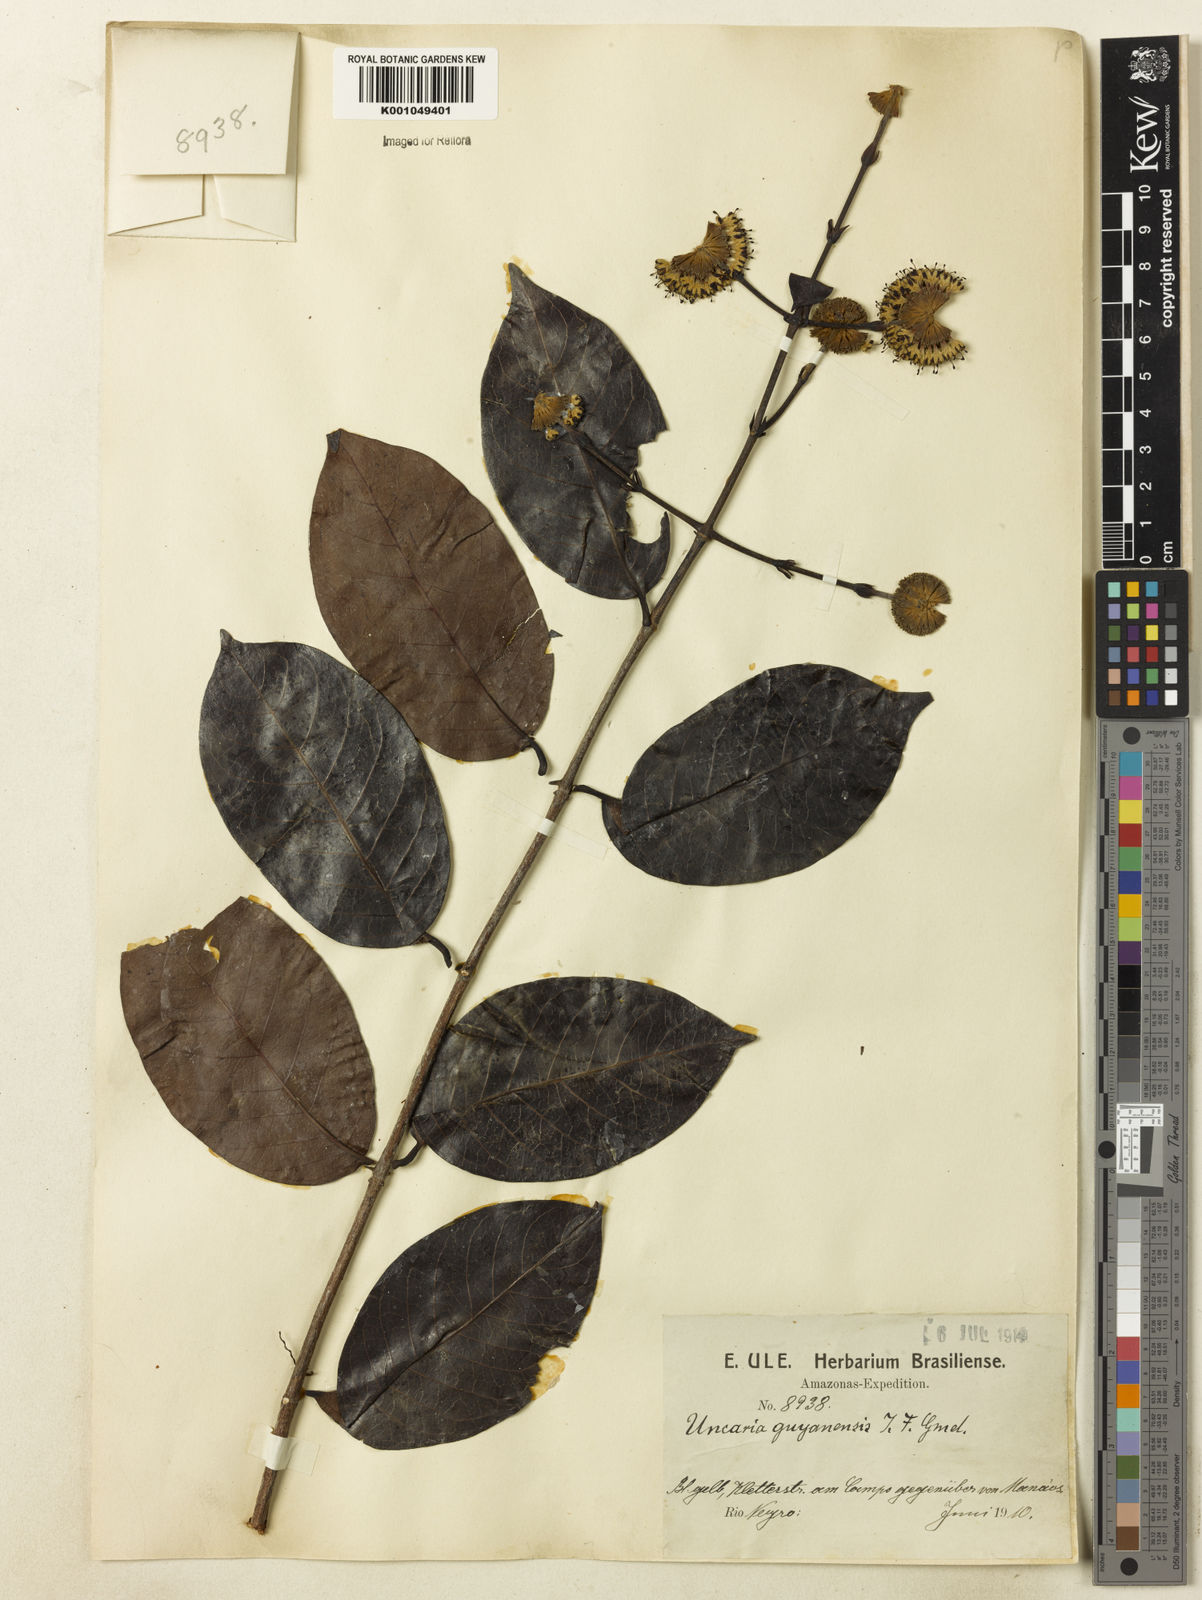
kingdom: Plantae
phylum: Tracheophyta
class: Magnoliopsida
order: Gentianales
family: Rubiaceae
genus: Uncaria
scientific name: Uncaria guianensis
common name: Cat's-claw
